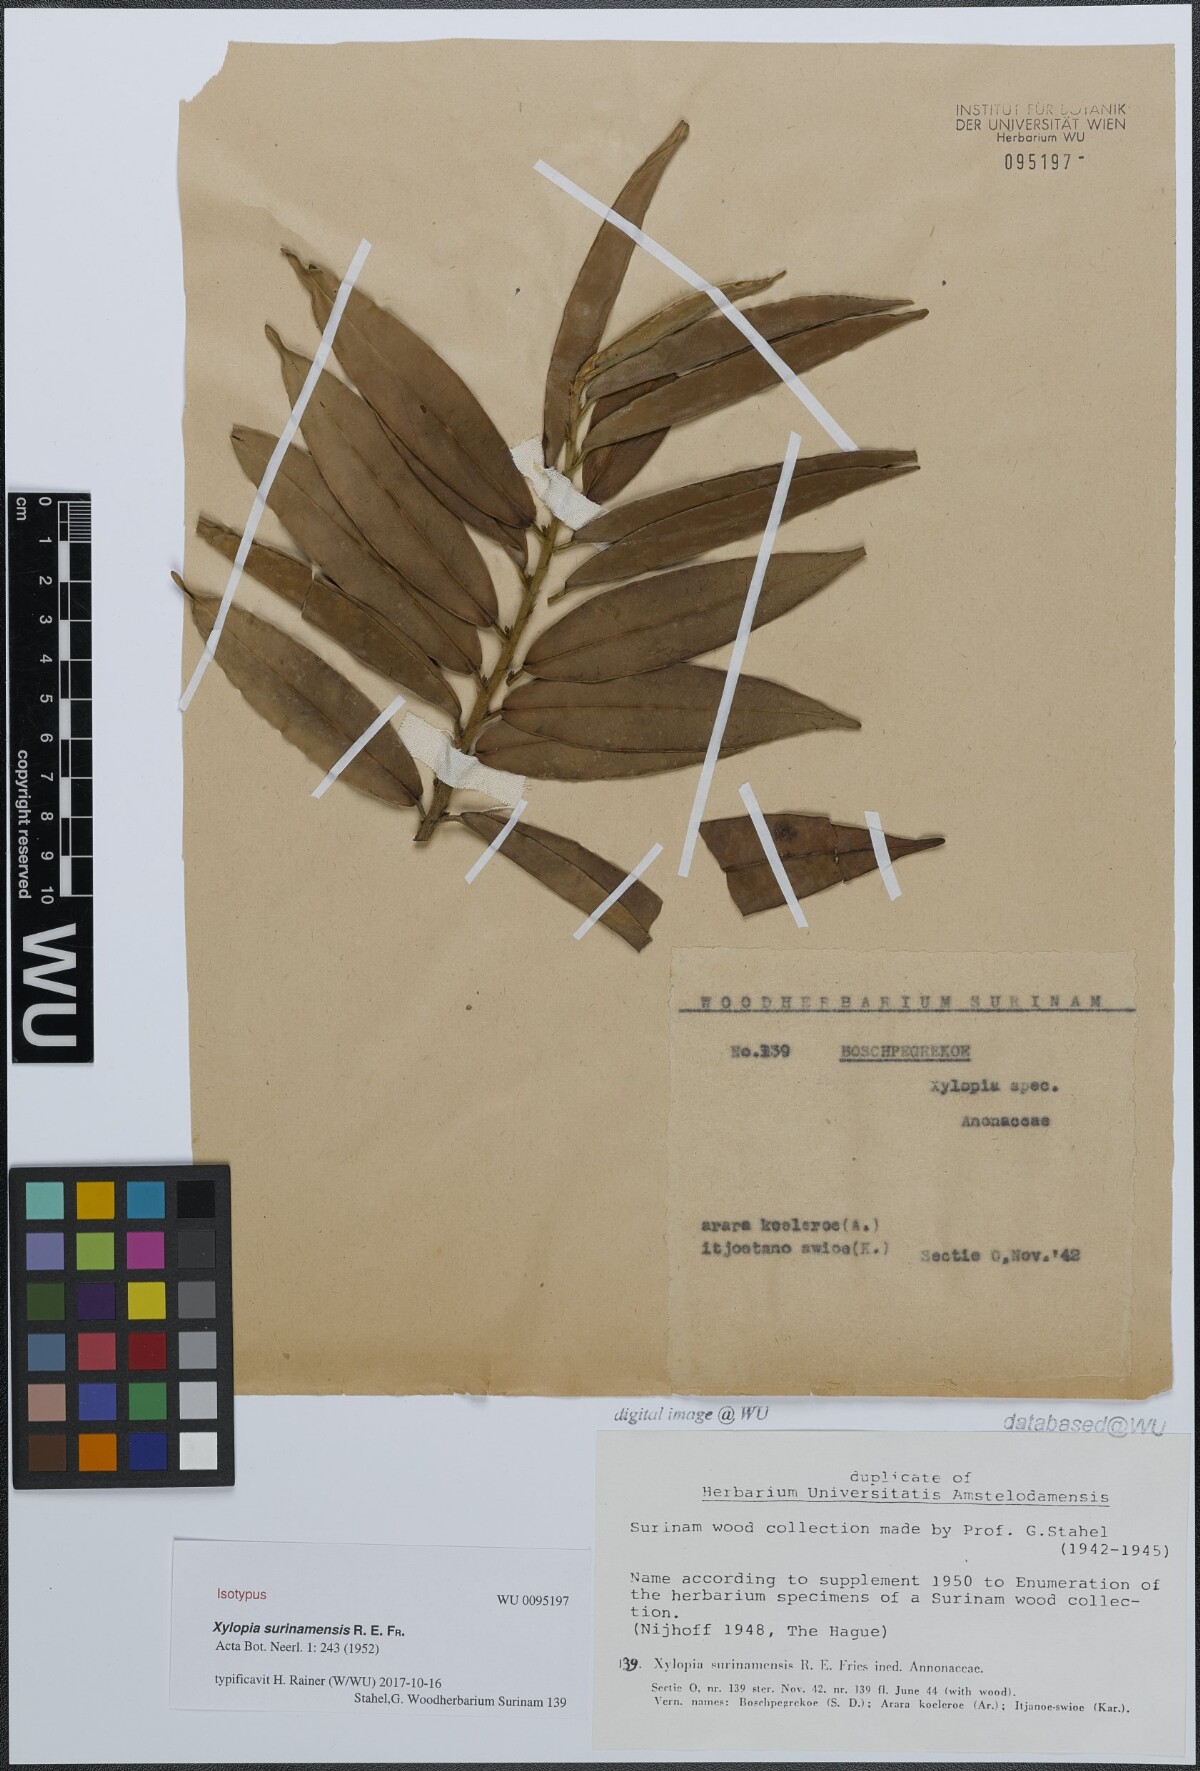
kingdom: Plantae
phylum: Tracheophyta
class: Magnoliopsida
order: Magnoliales
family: Annonaceae
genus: Xylopia
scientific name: Xylopia surinamensis
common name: Black wepopi
